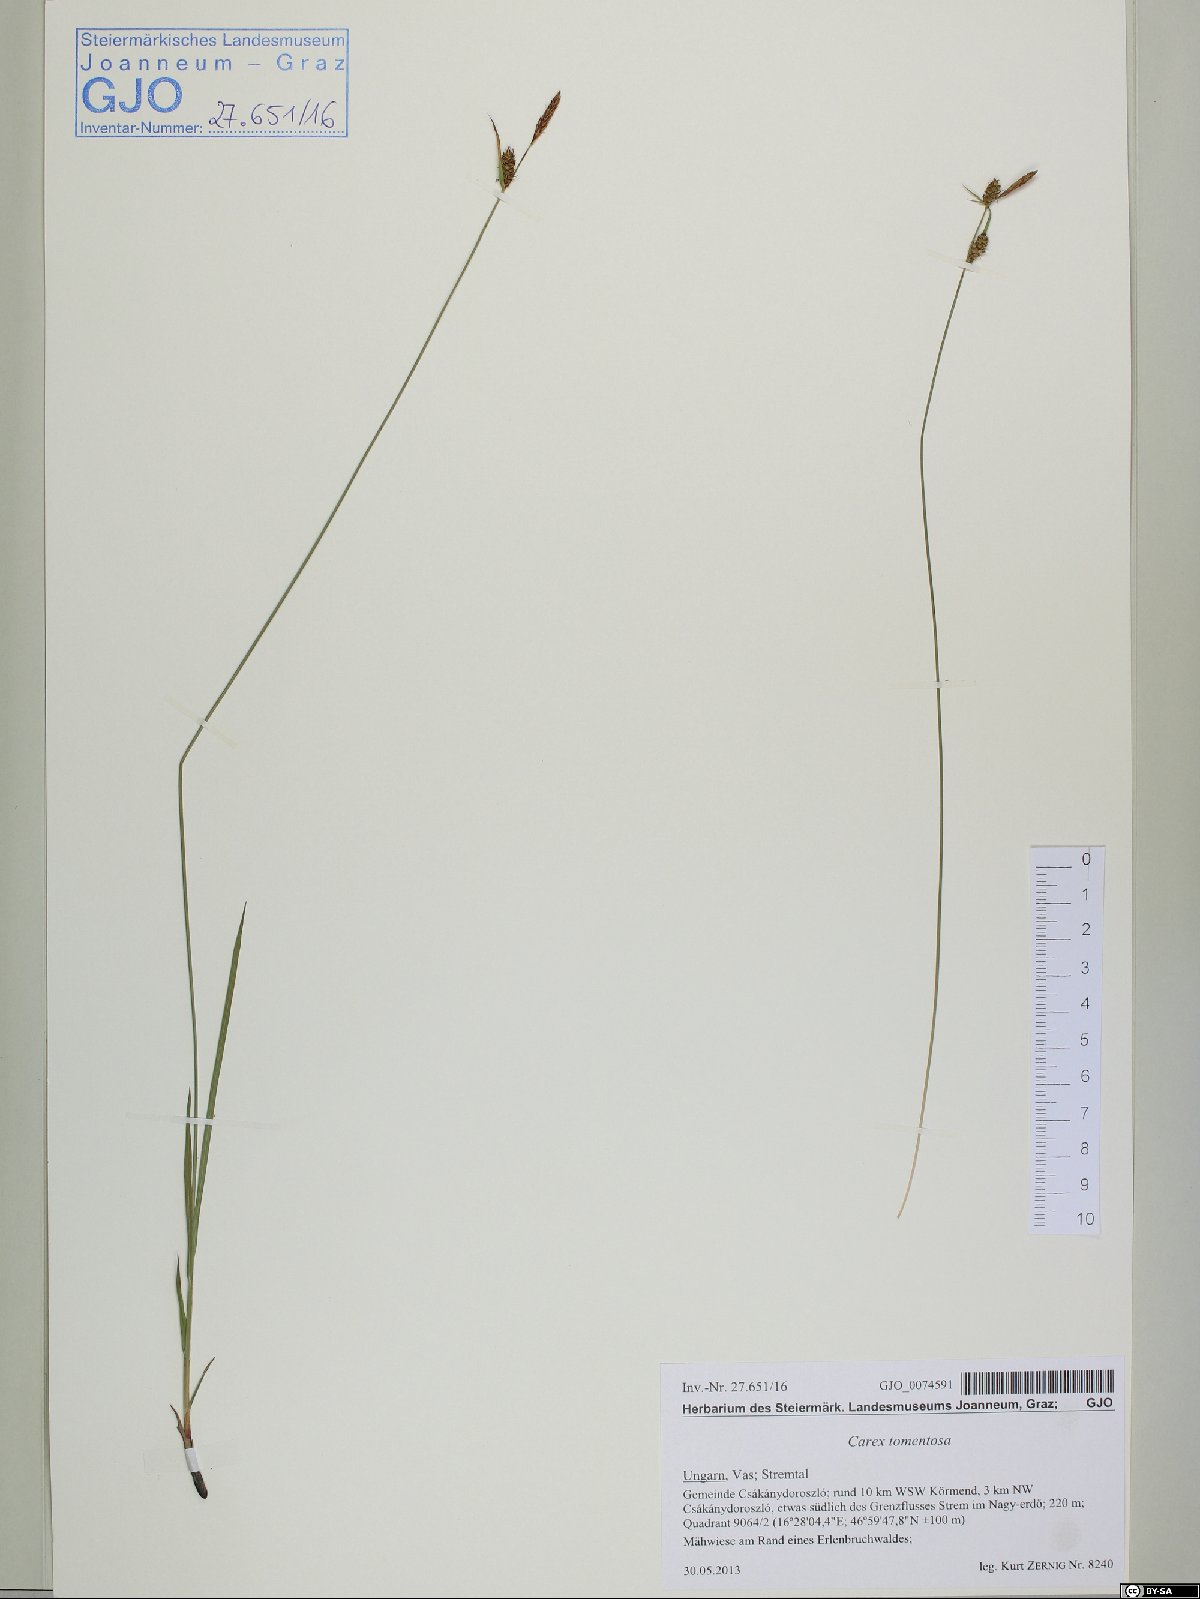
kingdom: Plantae
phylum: Tracheophyta
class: Liliopsida
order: Poales
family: Cyperaceae
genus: Carex
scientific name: Carex tomentosa
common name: Downy-fruited sedge
